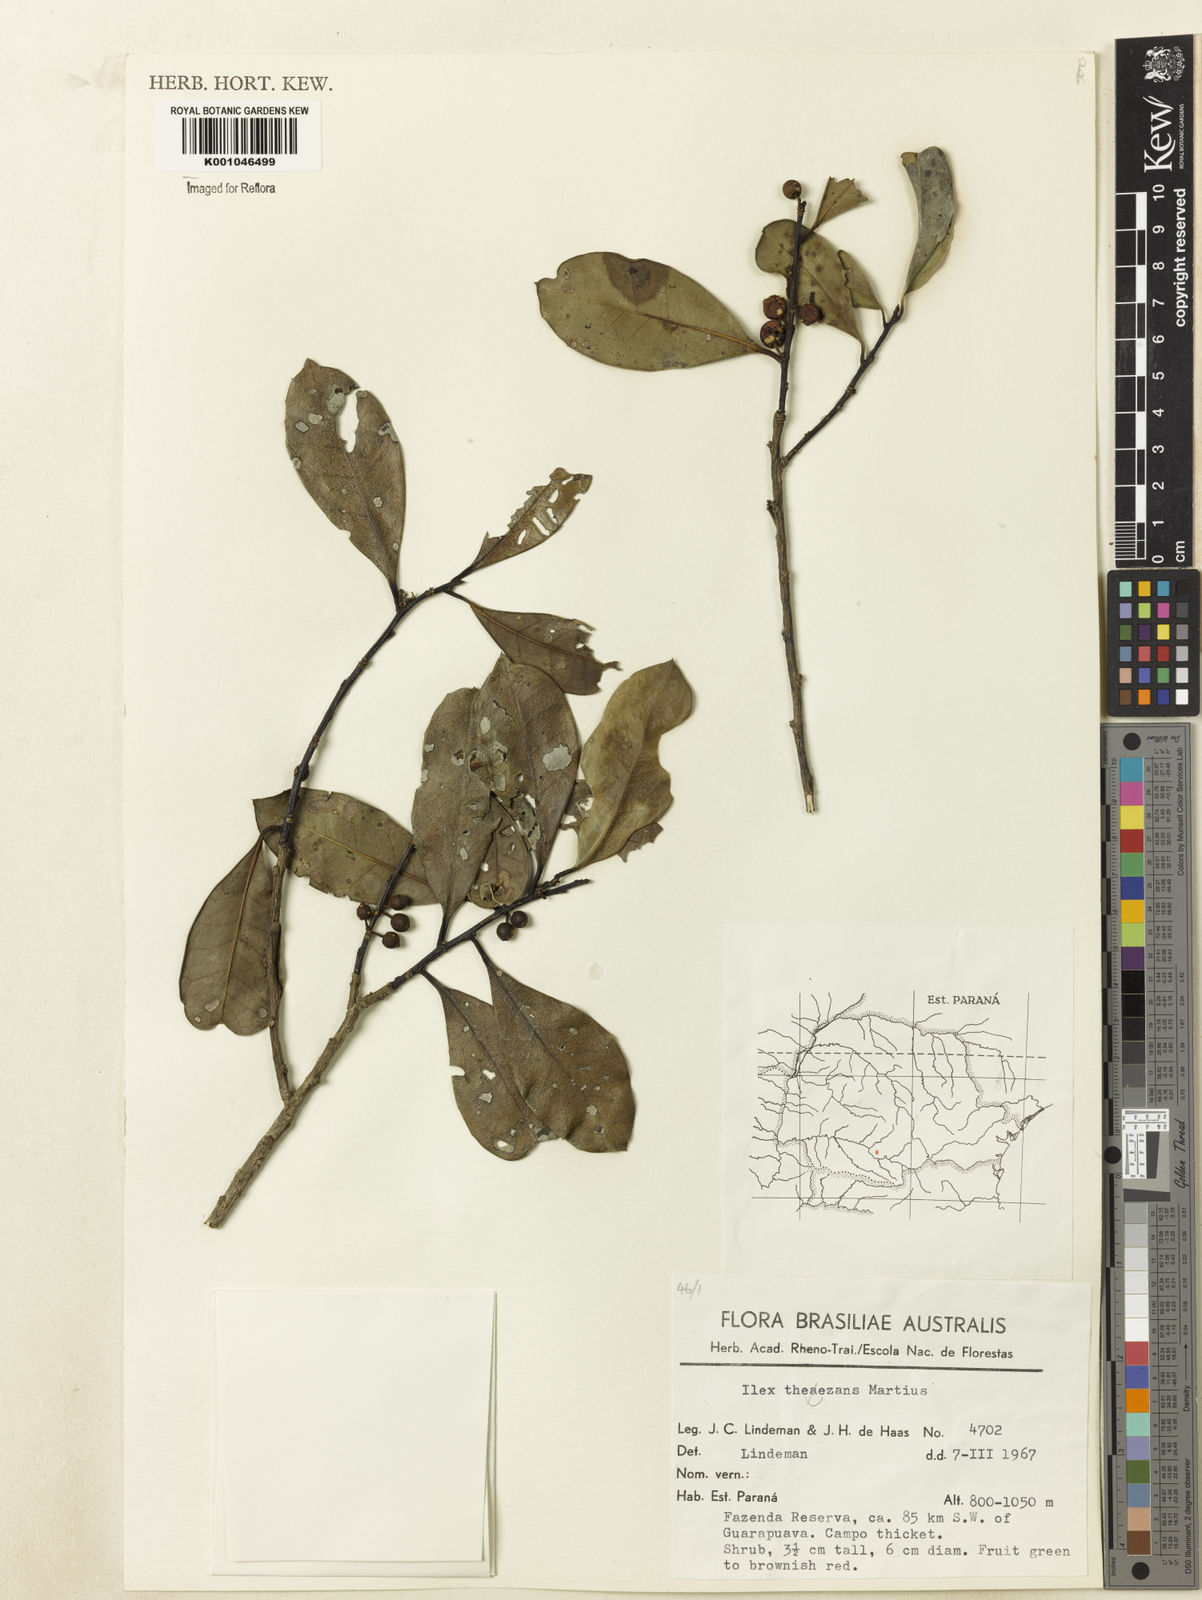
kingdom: Plantae
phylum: Tracheophyta
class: Magnoliopsida
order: Aquifoliales
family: Aquifoliaceae
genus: Ilex
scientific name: Ilex paraguariensis
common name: Paraguay tea
